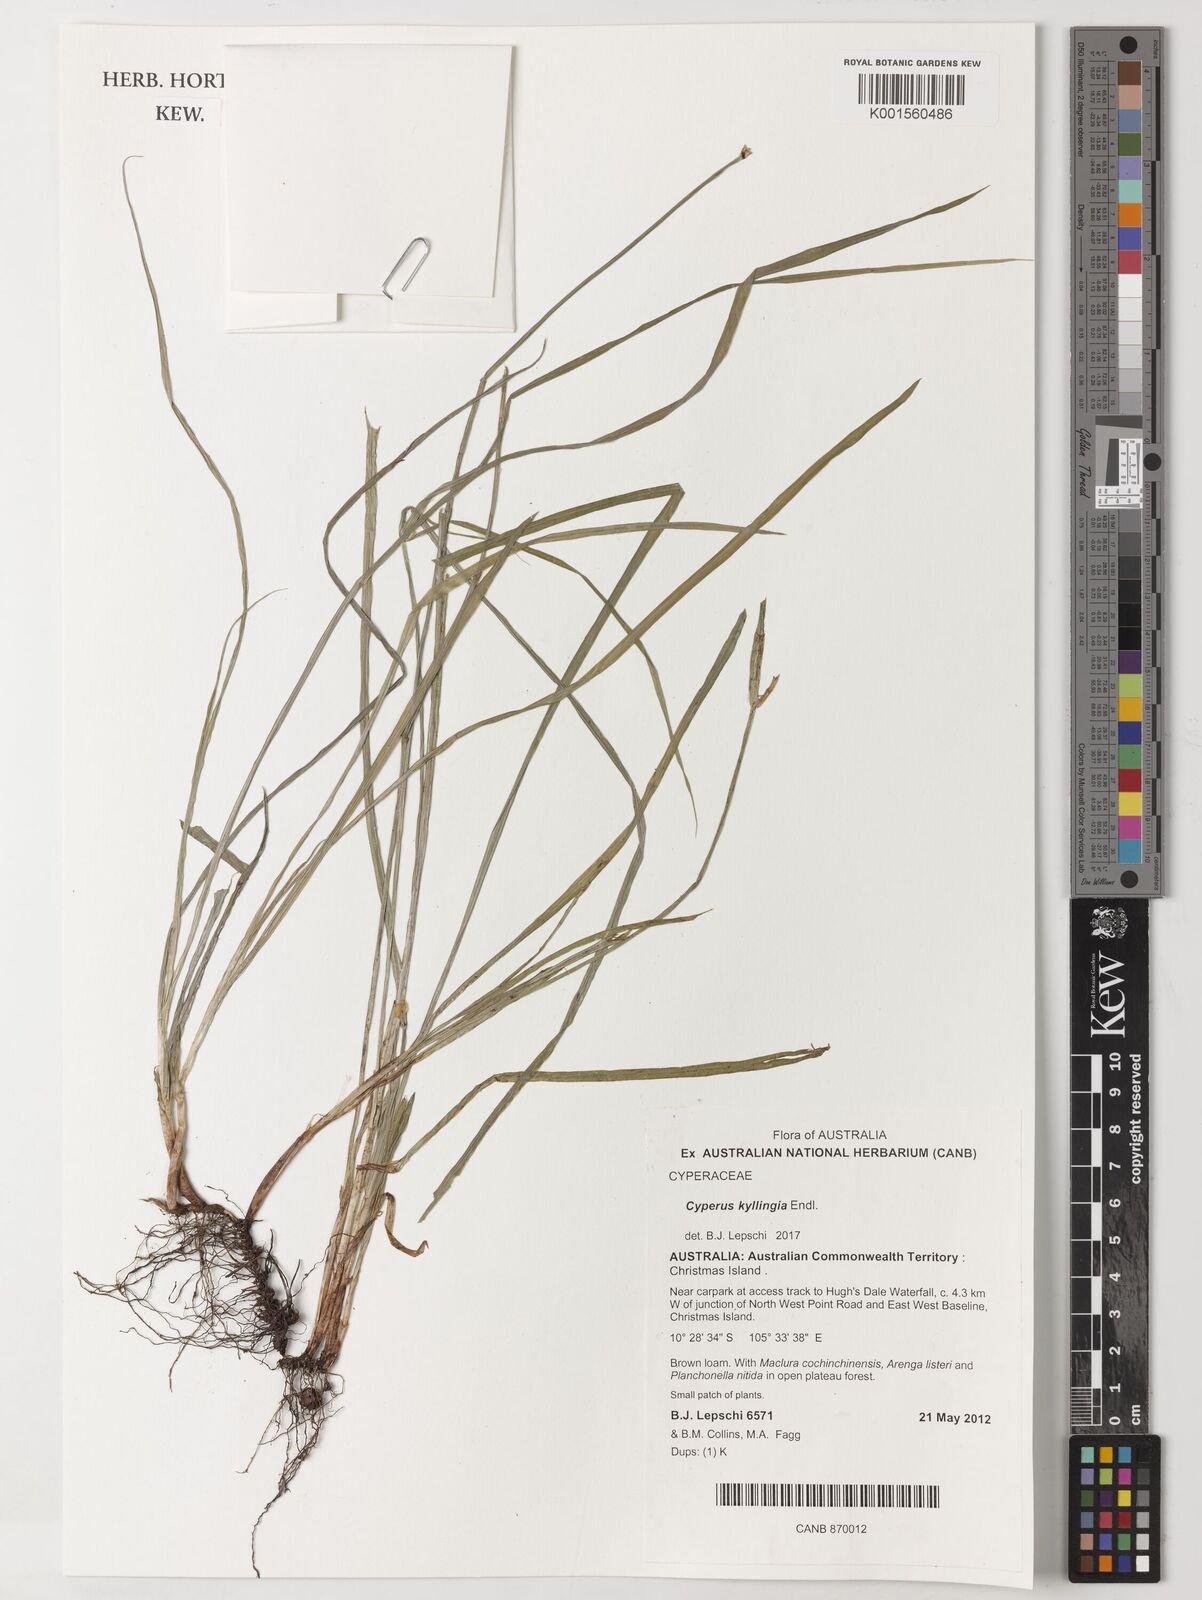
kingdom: Plantae
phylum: Tracheophyta
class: Liliopsida
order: Poales
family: Cyperaceae
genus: Rhynchospora
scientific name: Rhynchospora colorata
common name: Star sedge
